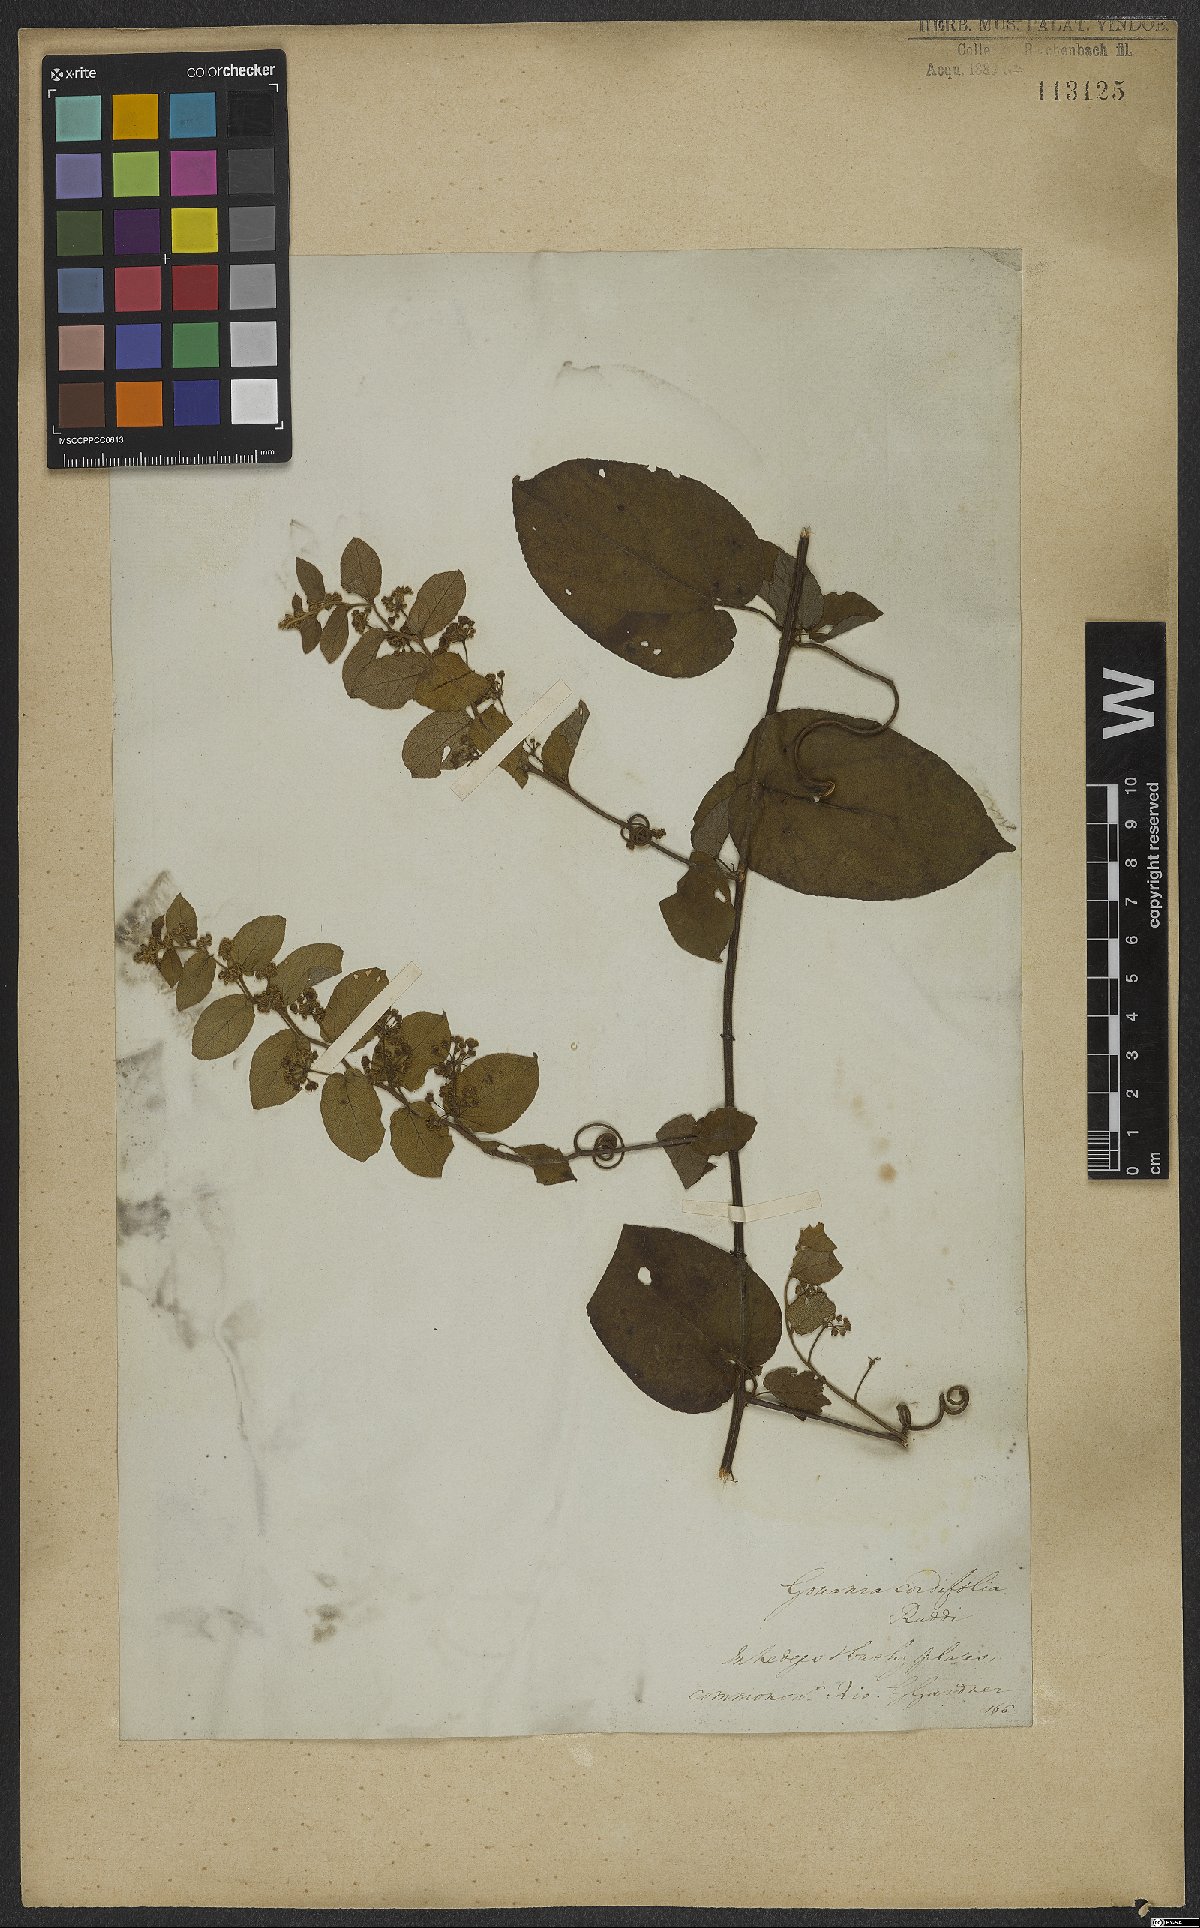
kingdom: Plantae
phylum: Tracheophyta
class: Magnoliopsida
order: Rosales
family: Rhamnaceae
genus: Reissekia
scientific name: Reissekia smilacina
